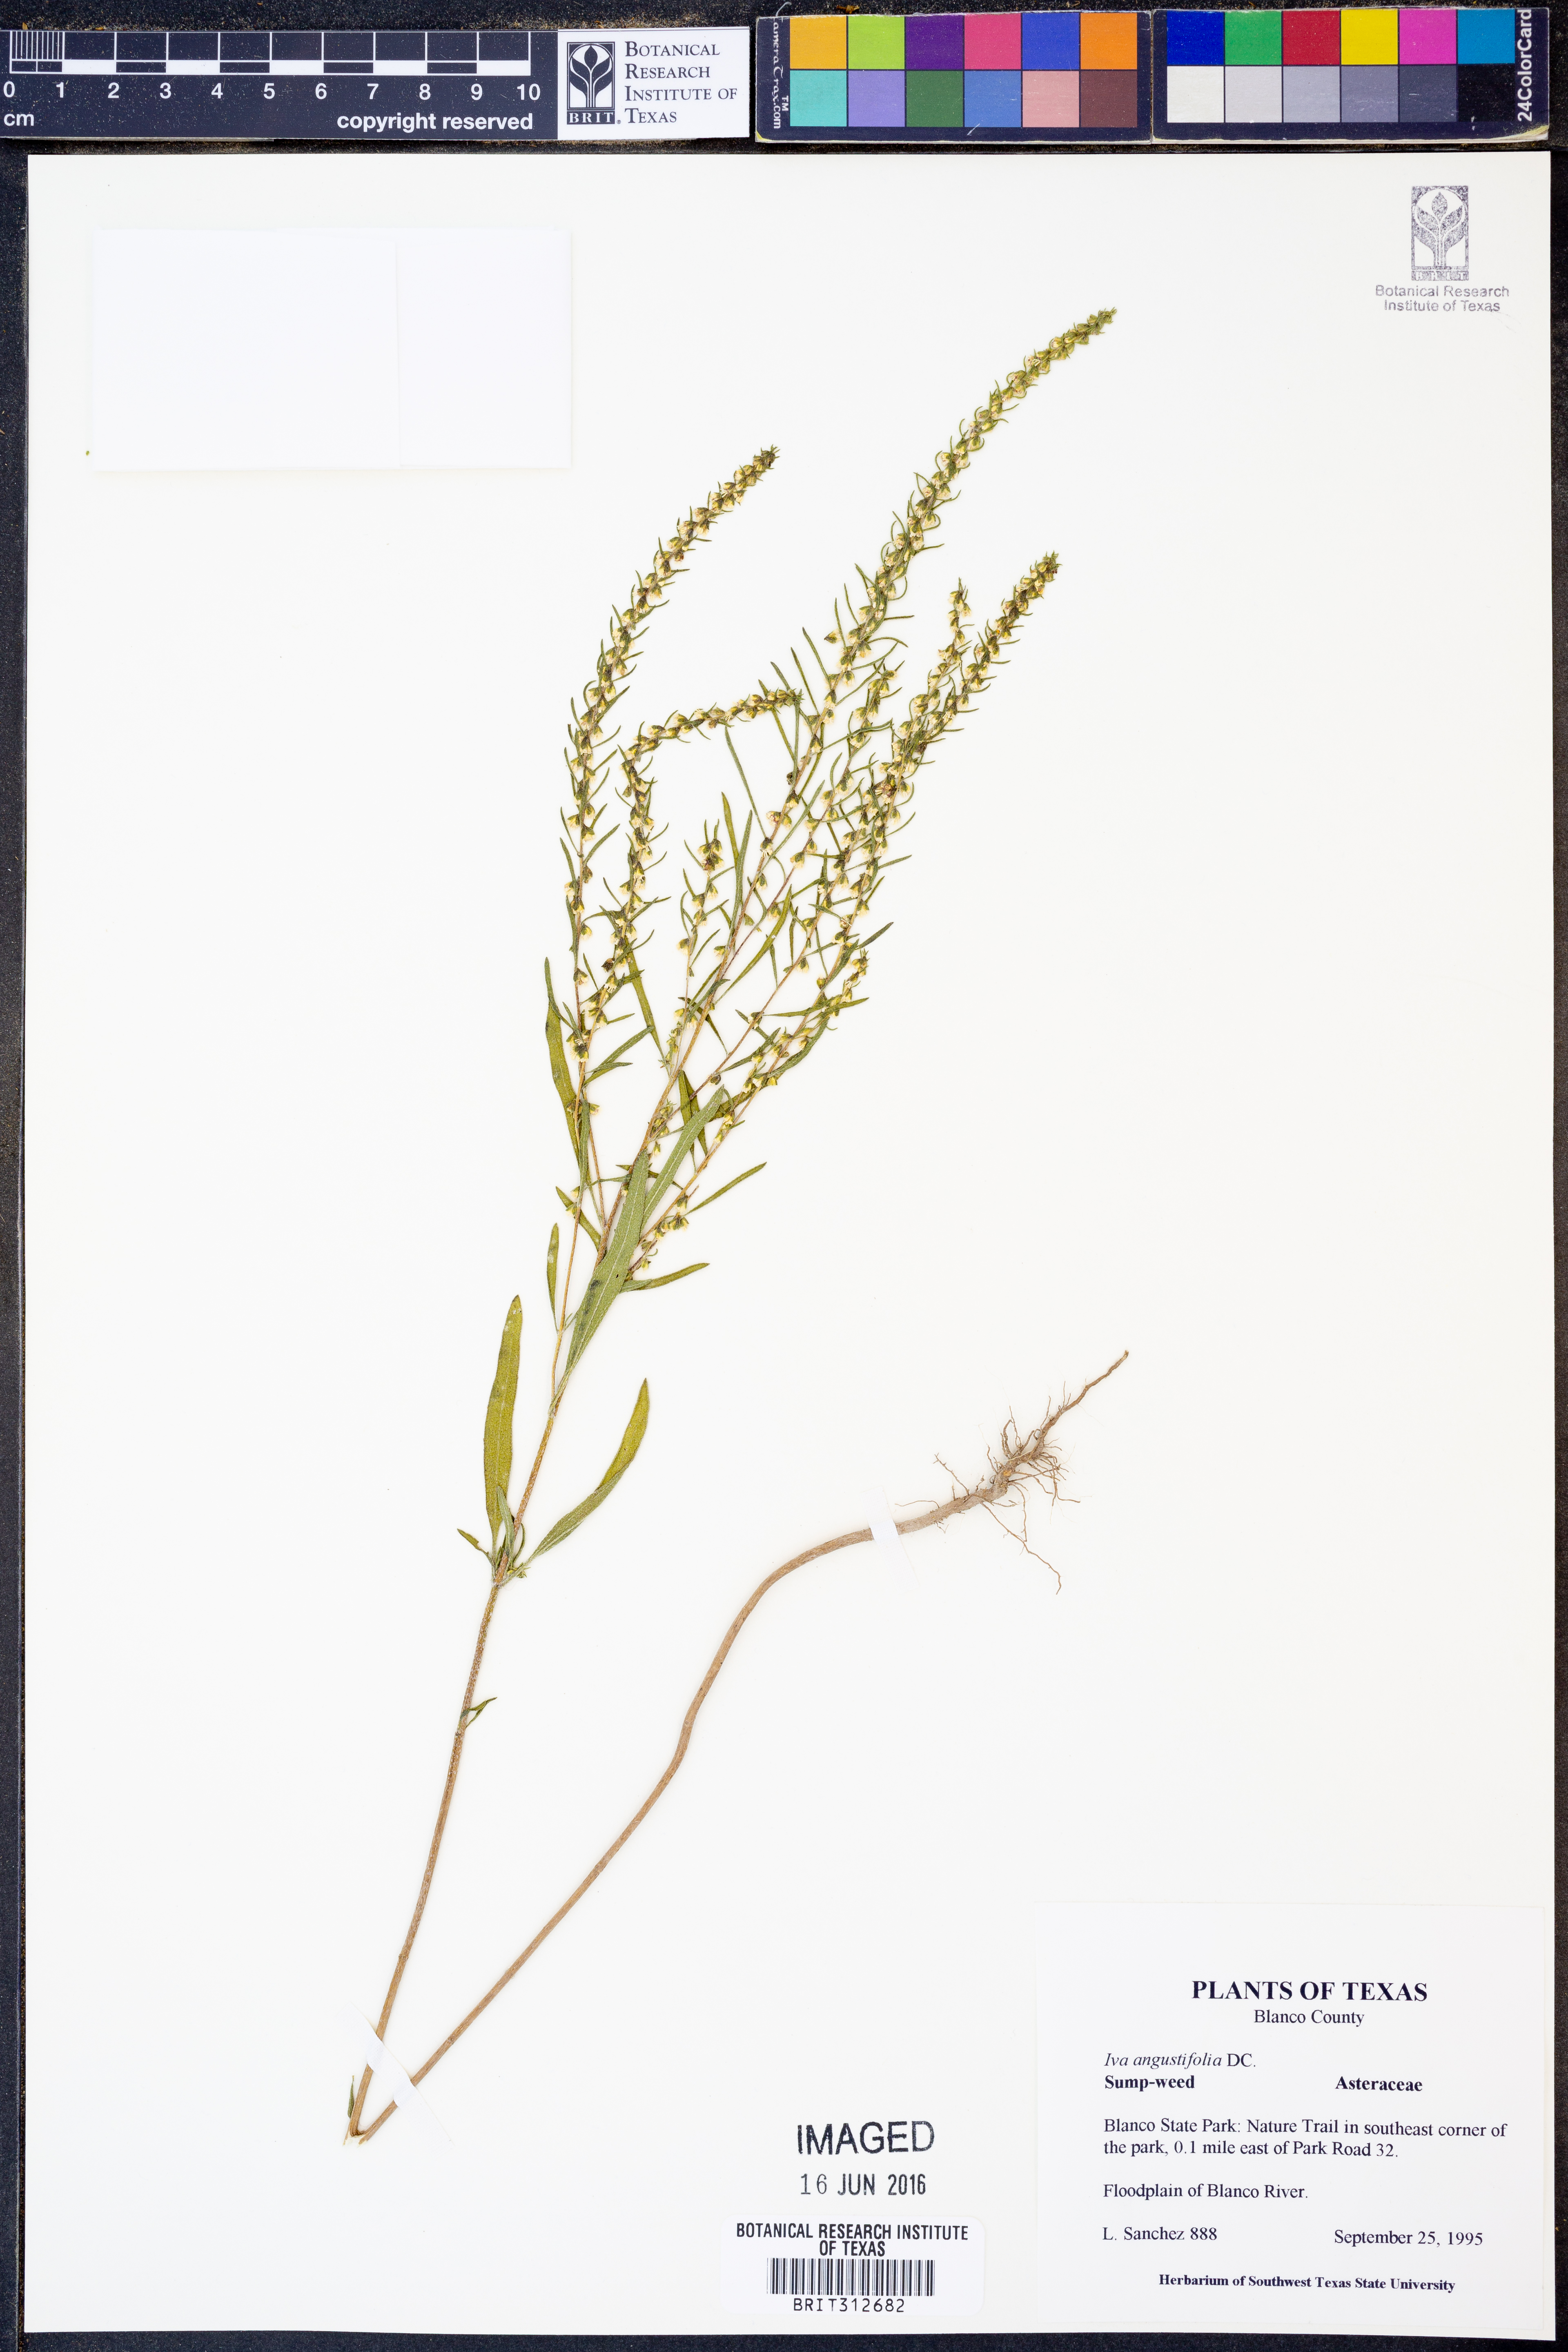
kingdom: Plantae
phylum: Tracheophyta
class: Magnoliopsida
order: Asterales
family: Asteraceae
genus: Iva
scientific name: Iva asperifolia
